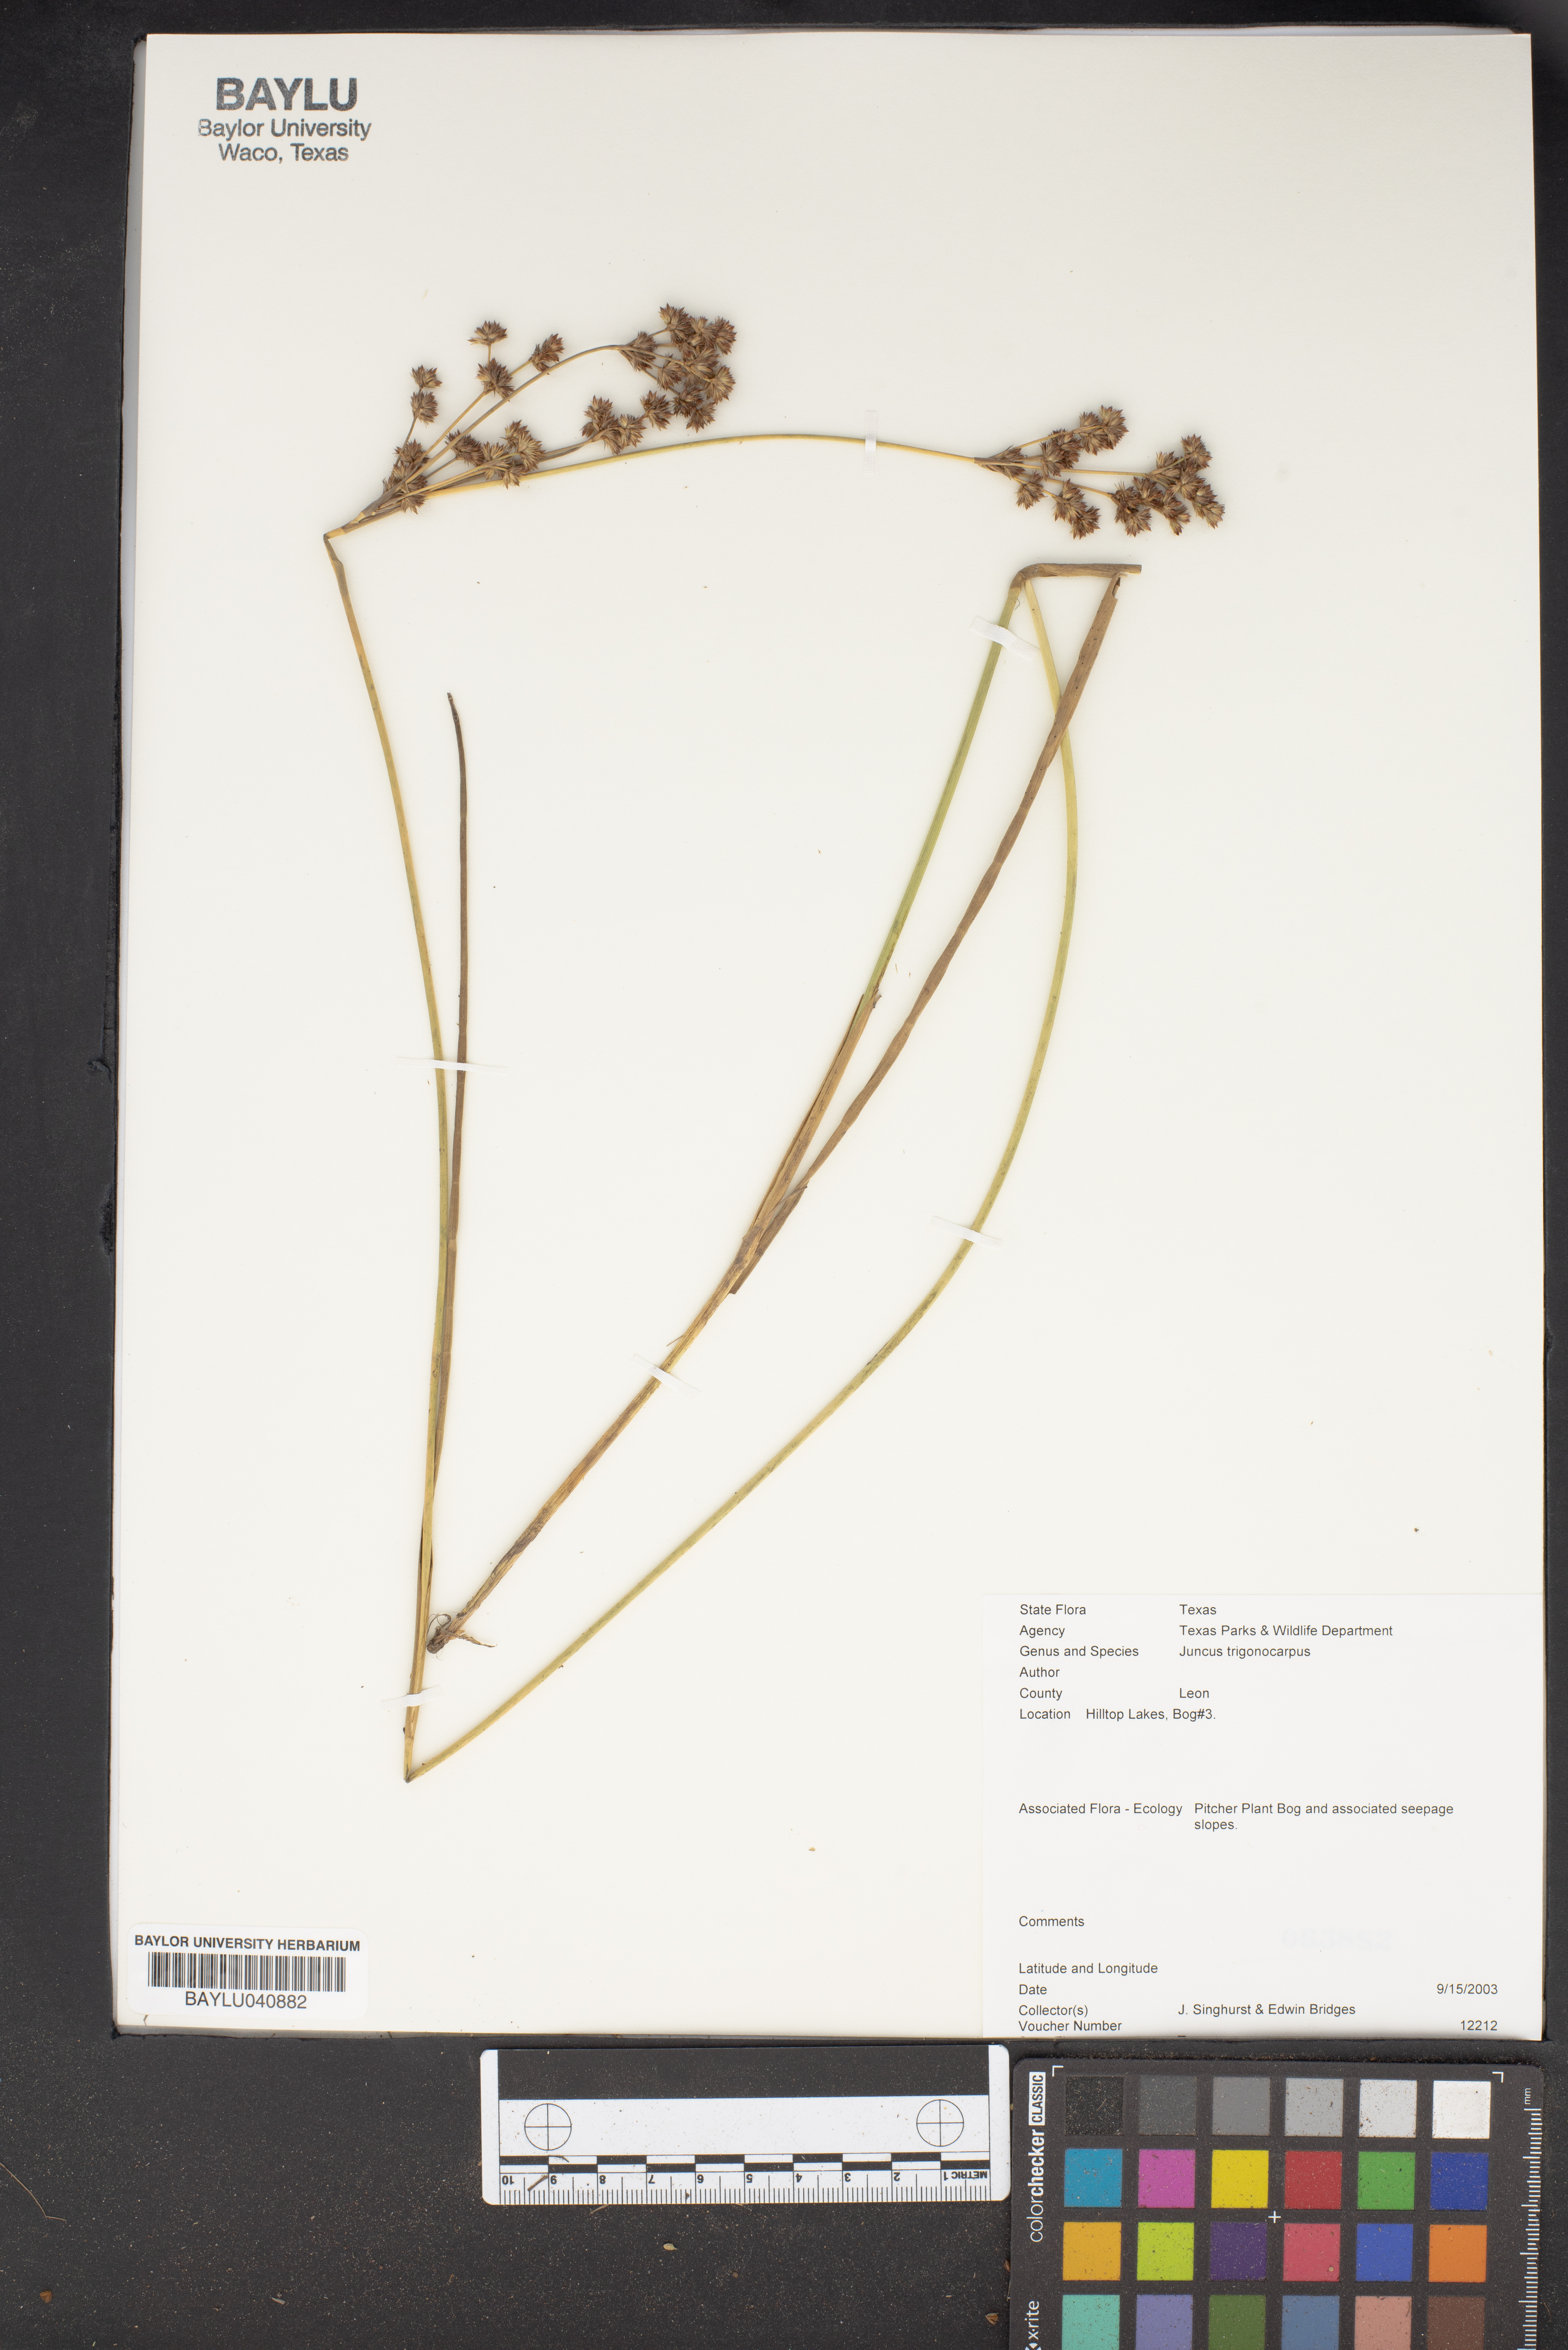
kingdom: Plantae
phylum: Tracheophyta
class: Liliopsida
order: Poales
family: Juncaceae
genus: Juncus
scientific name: Juncus trigonocarpus
